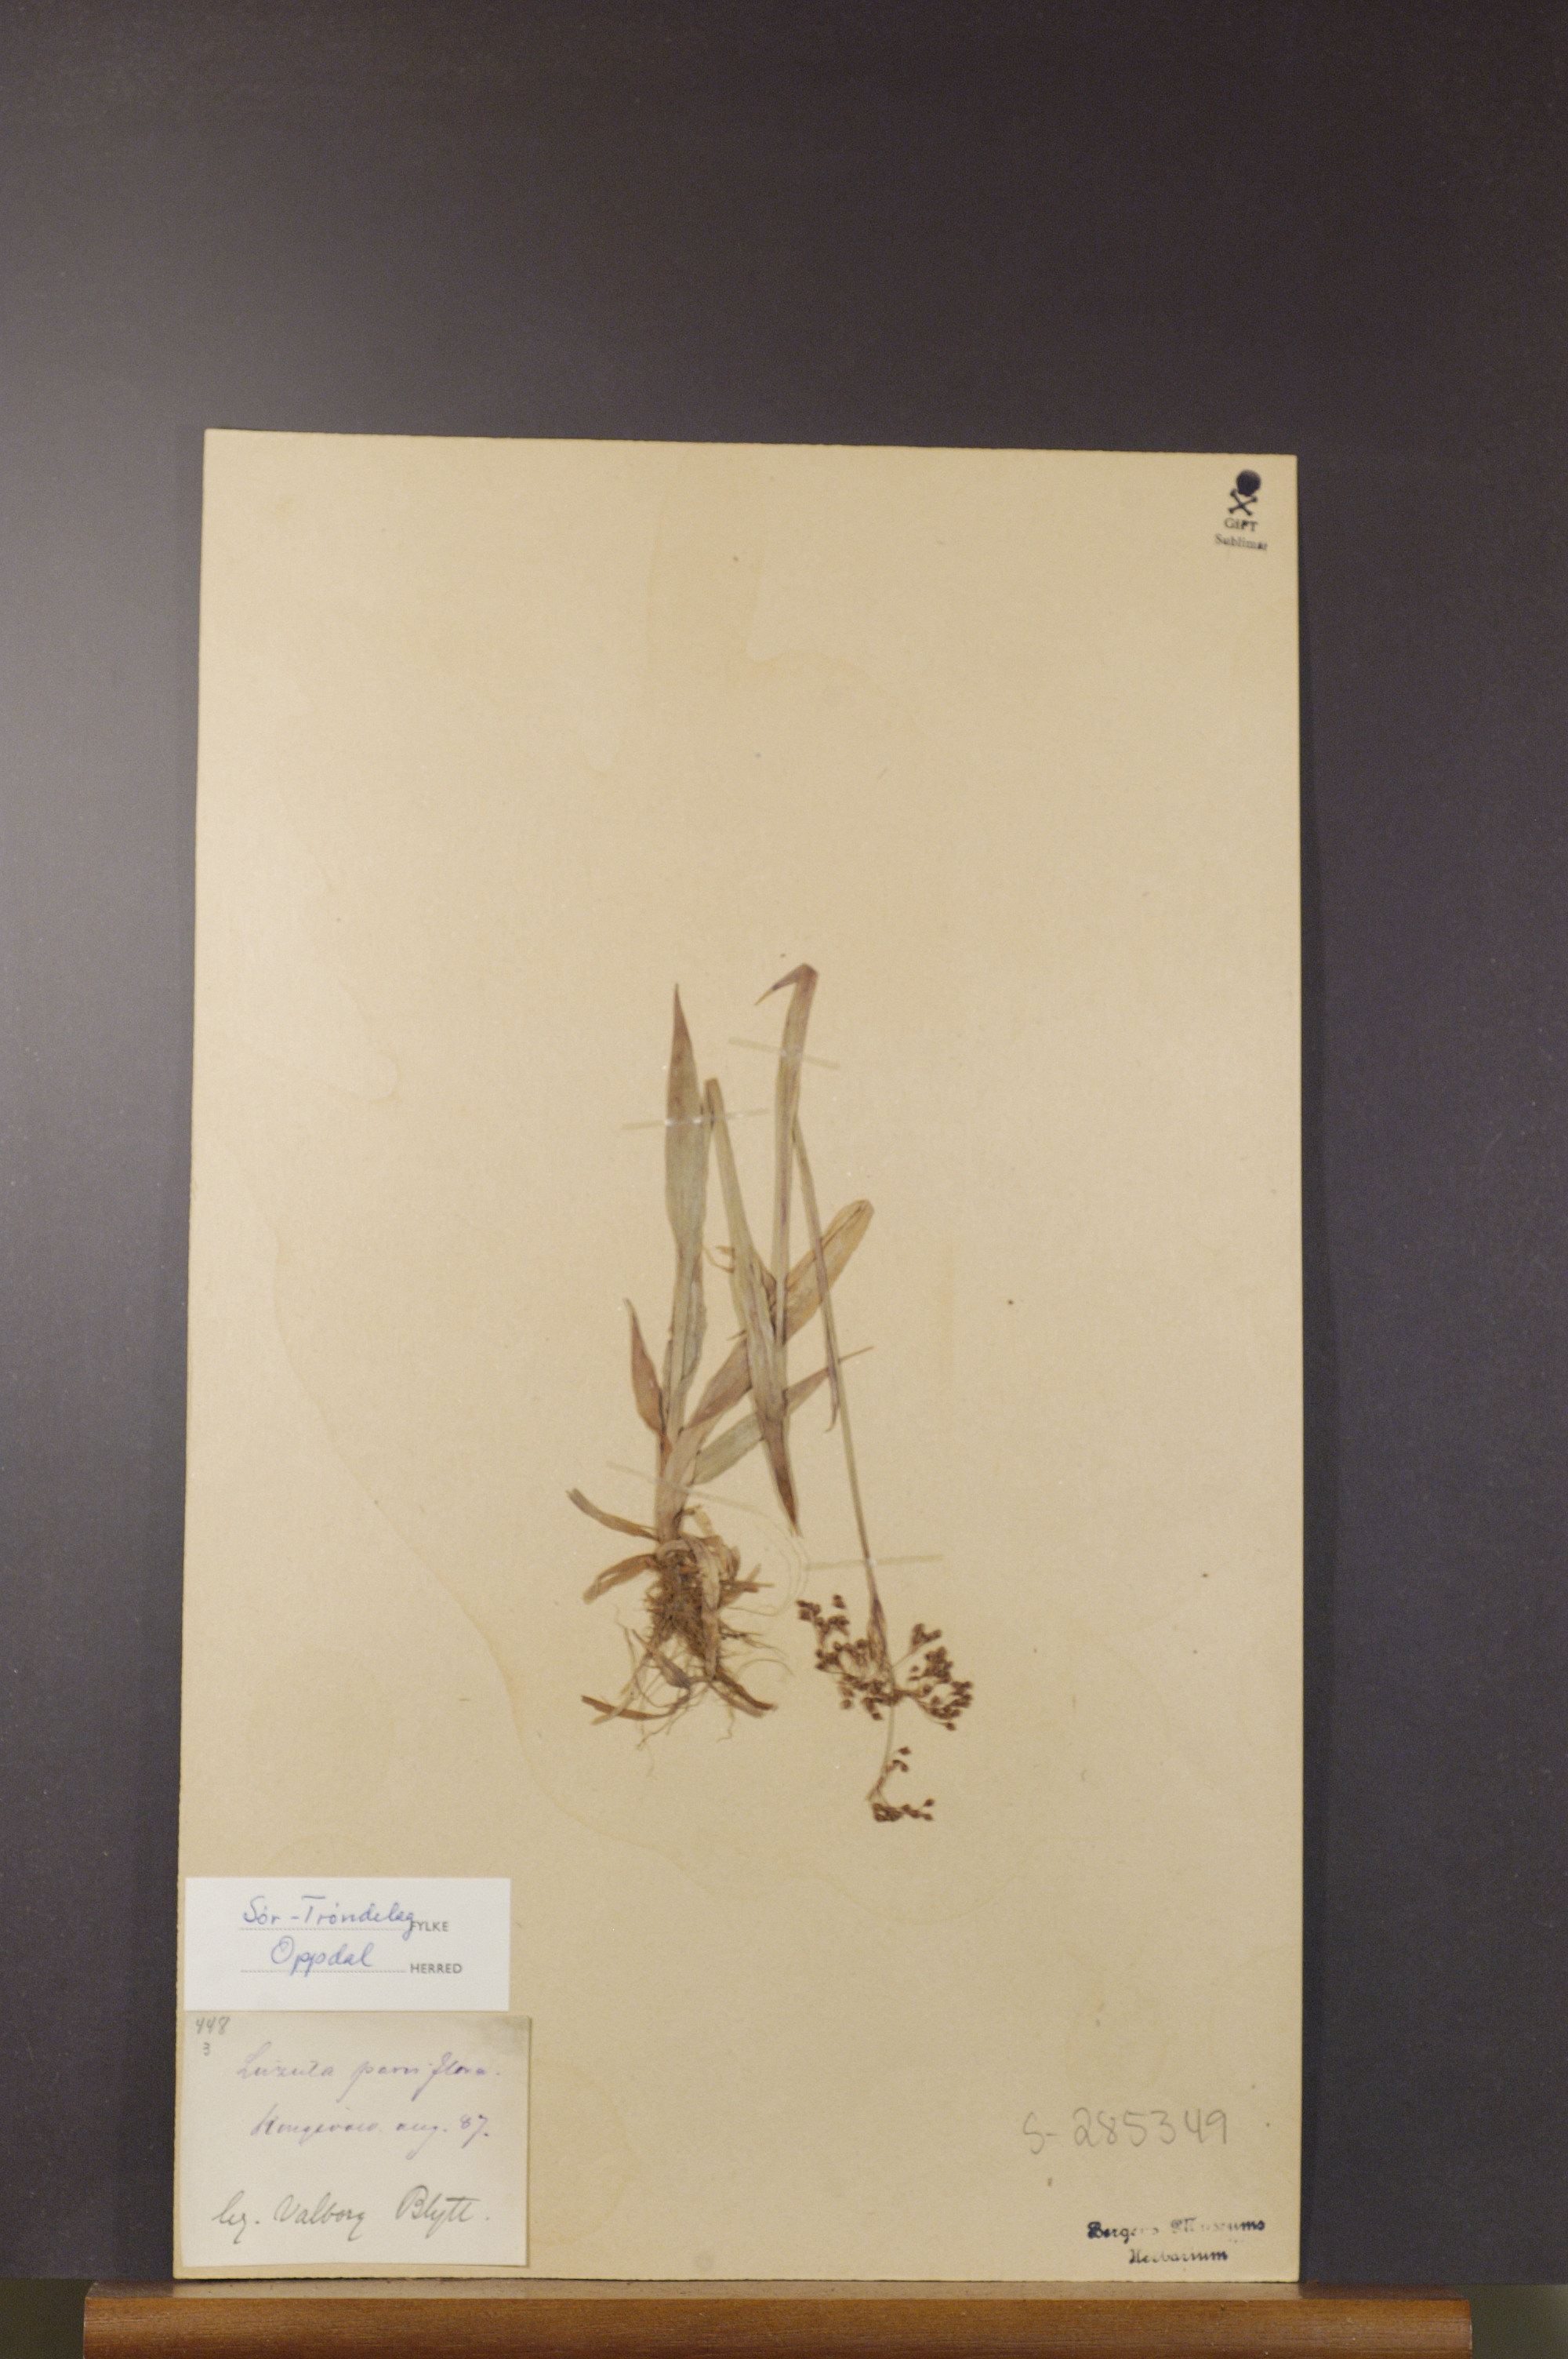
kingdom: Plantae
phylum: Tracheophyta
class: Liliopsida
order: Poales
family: Juncaceae
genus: Luzula
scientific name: Luzula parviflora
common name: Millet woodrush
